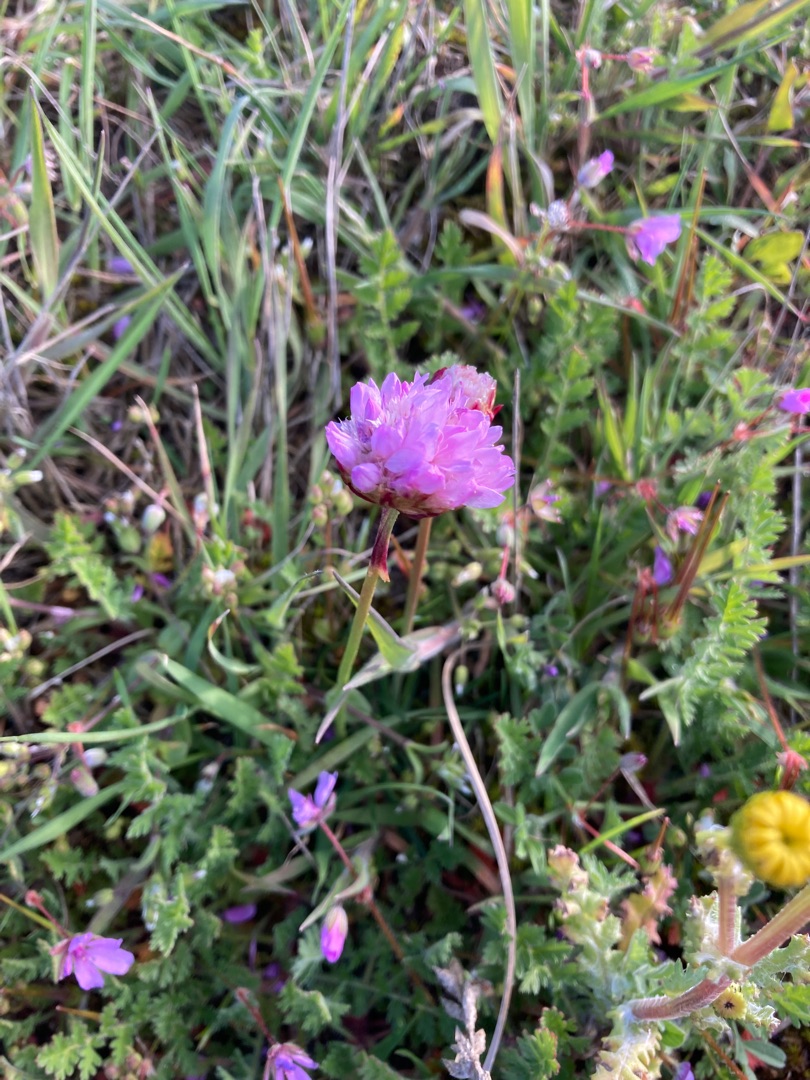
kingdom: Plantae
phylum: Tracheophyta
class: Magnoliopsida
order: Caryophyllales
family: Plumbaginaceae
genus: Armeria
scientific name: Armeria maritima
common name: Engelskgræs
